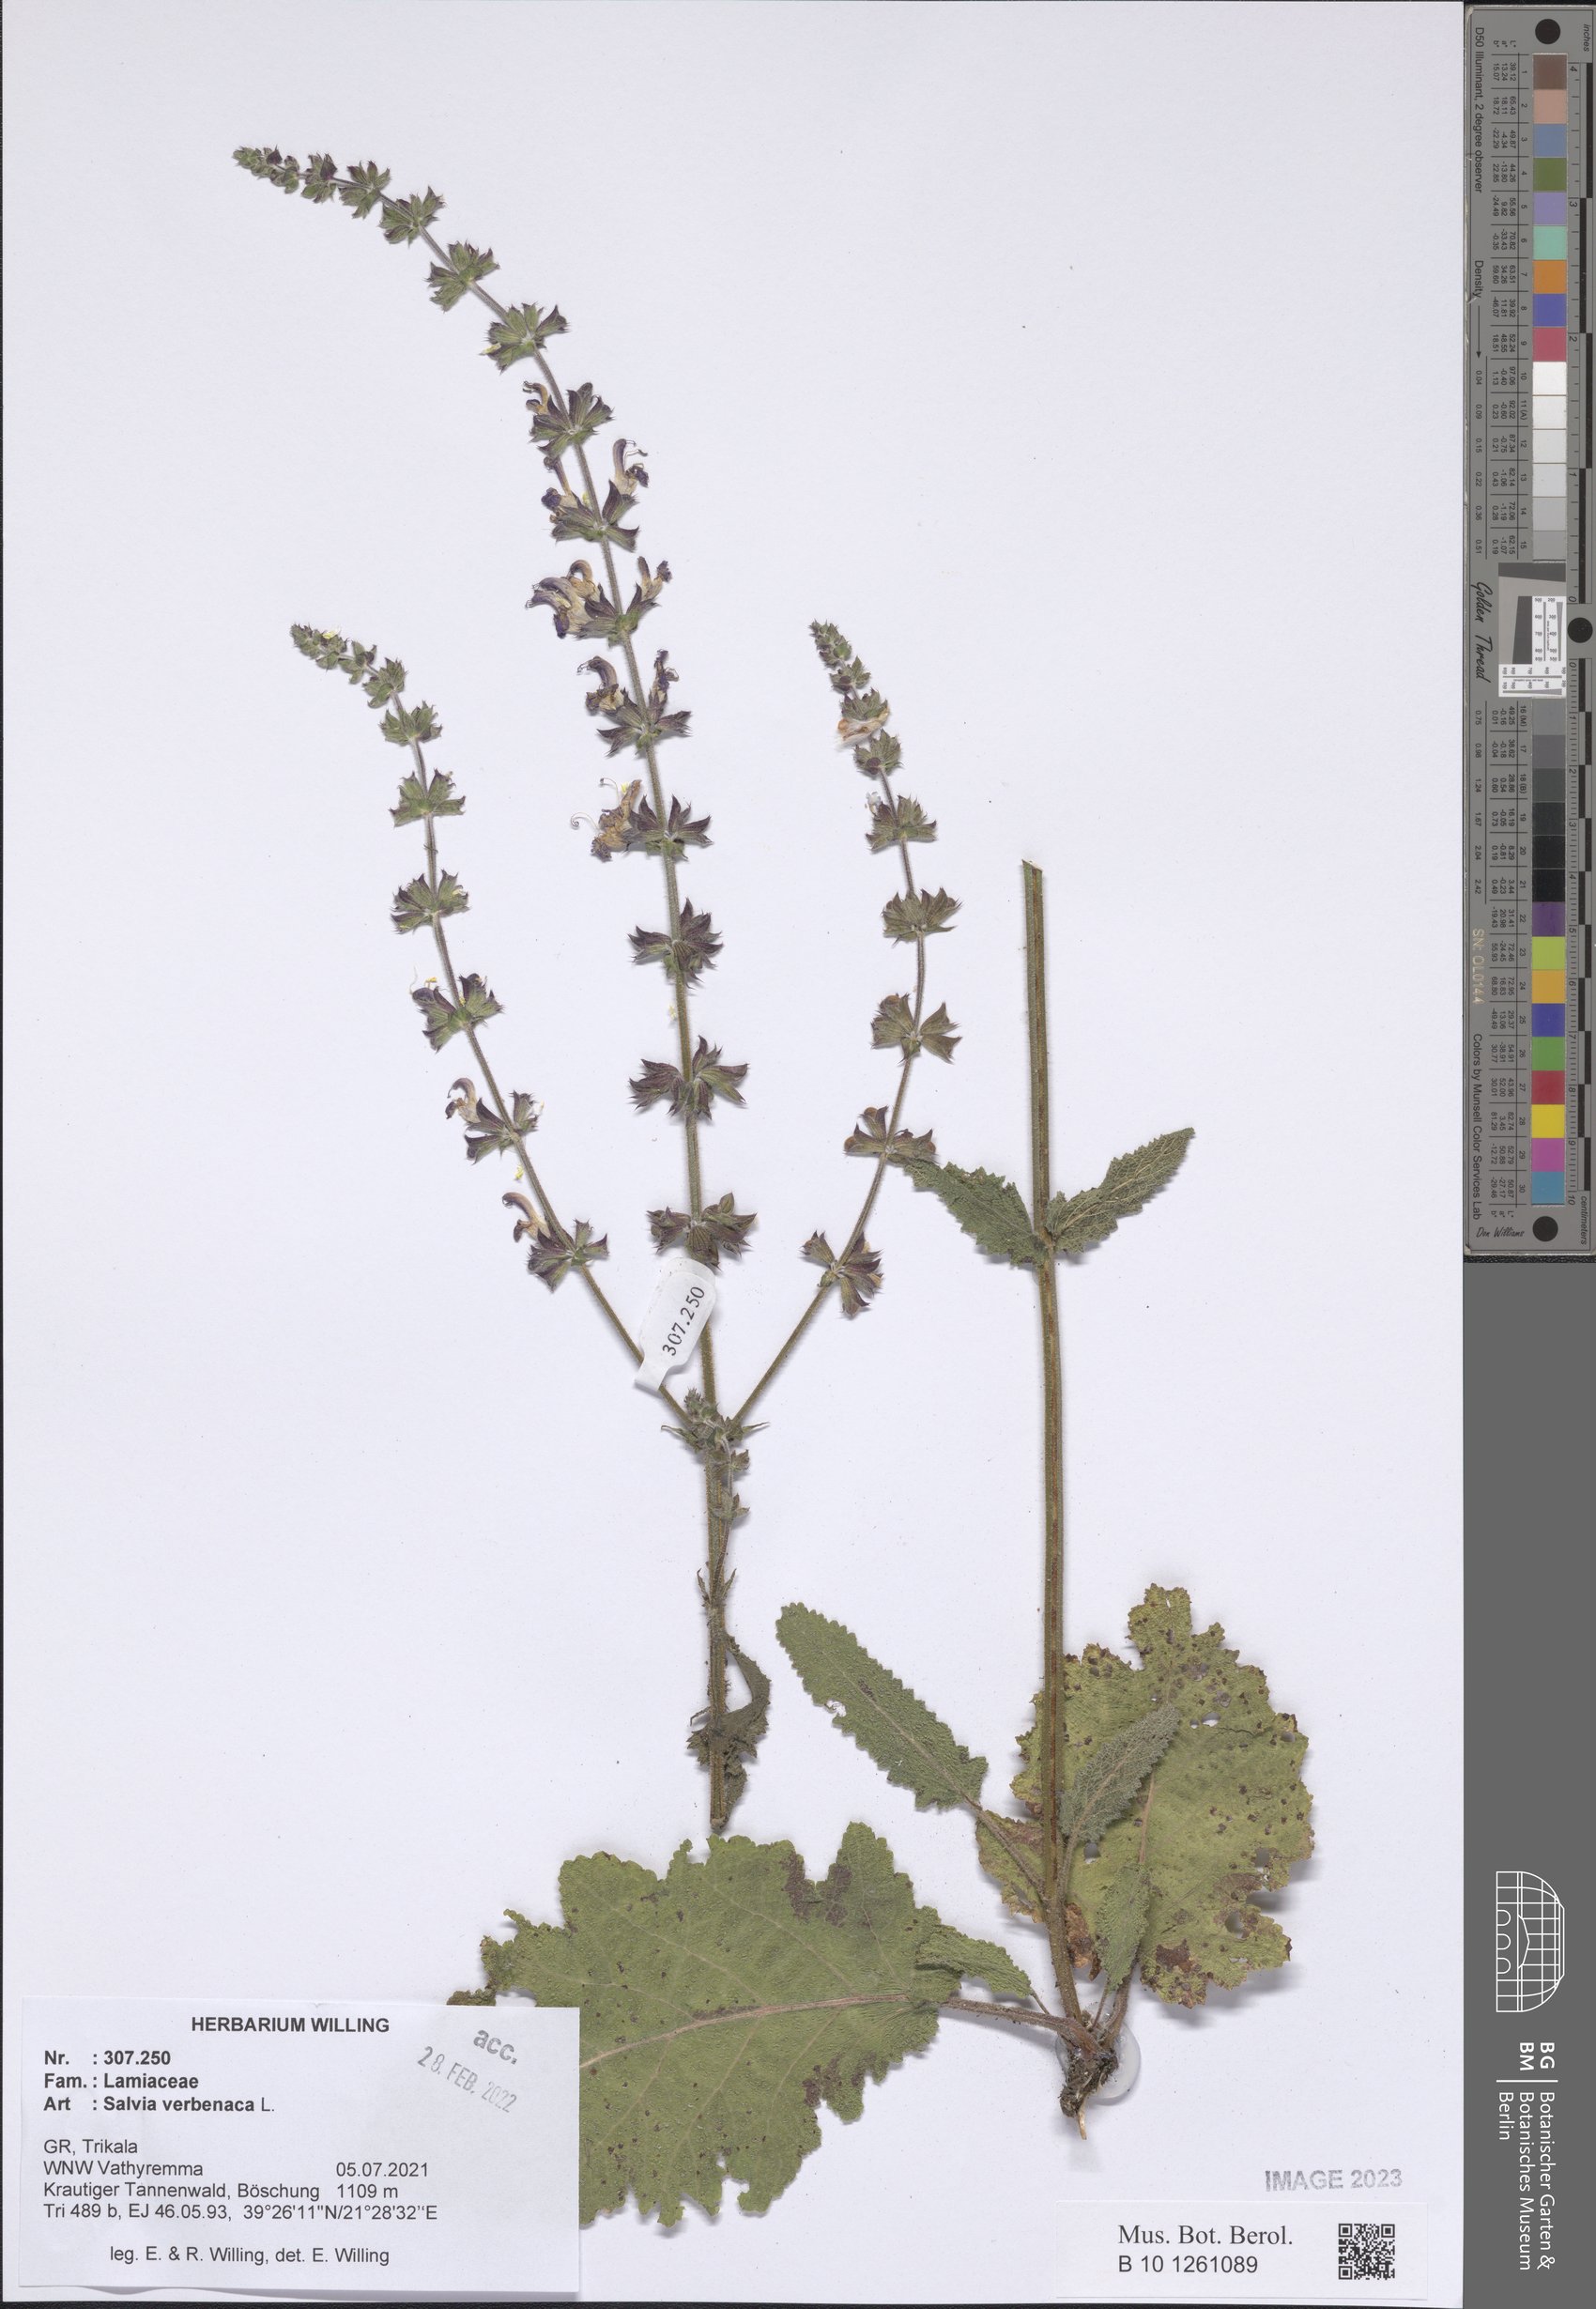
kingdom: Plantae
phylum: Tracheophyta
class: Magnoliopsida
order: Lamiales
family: Lamiaceae
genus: Salvia
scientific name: Salvia verbenaca
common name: Wild clary
